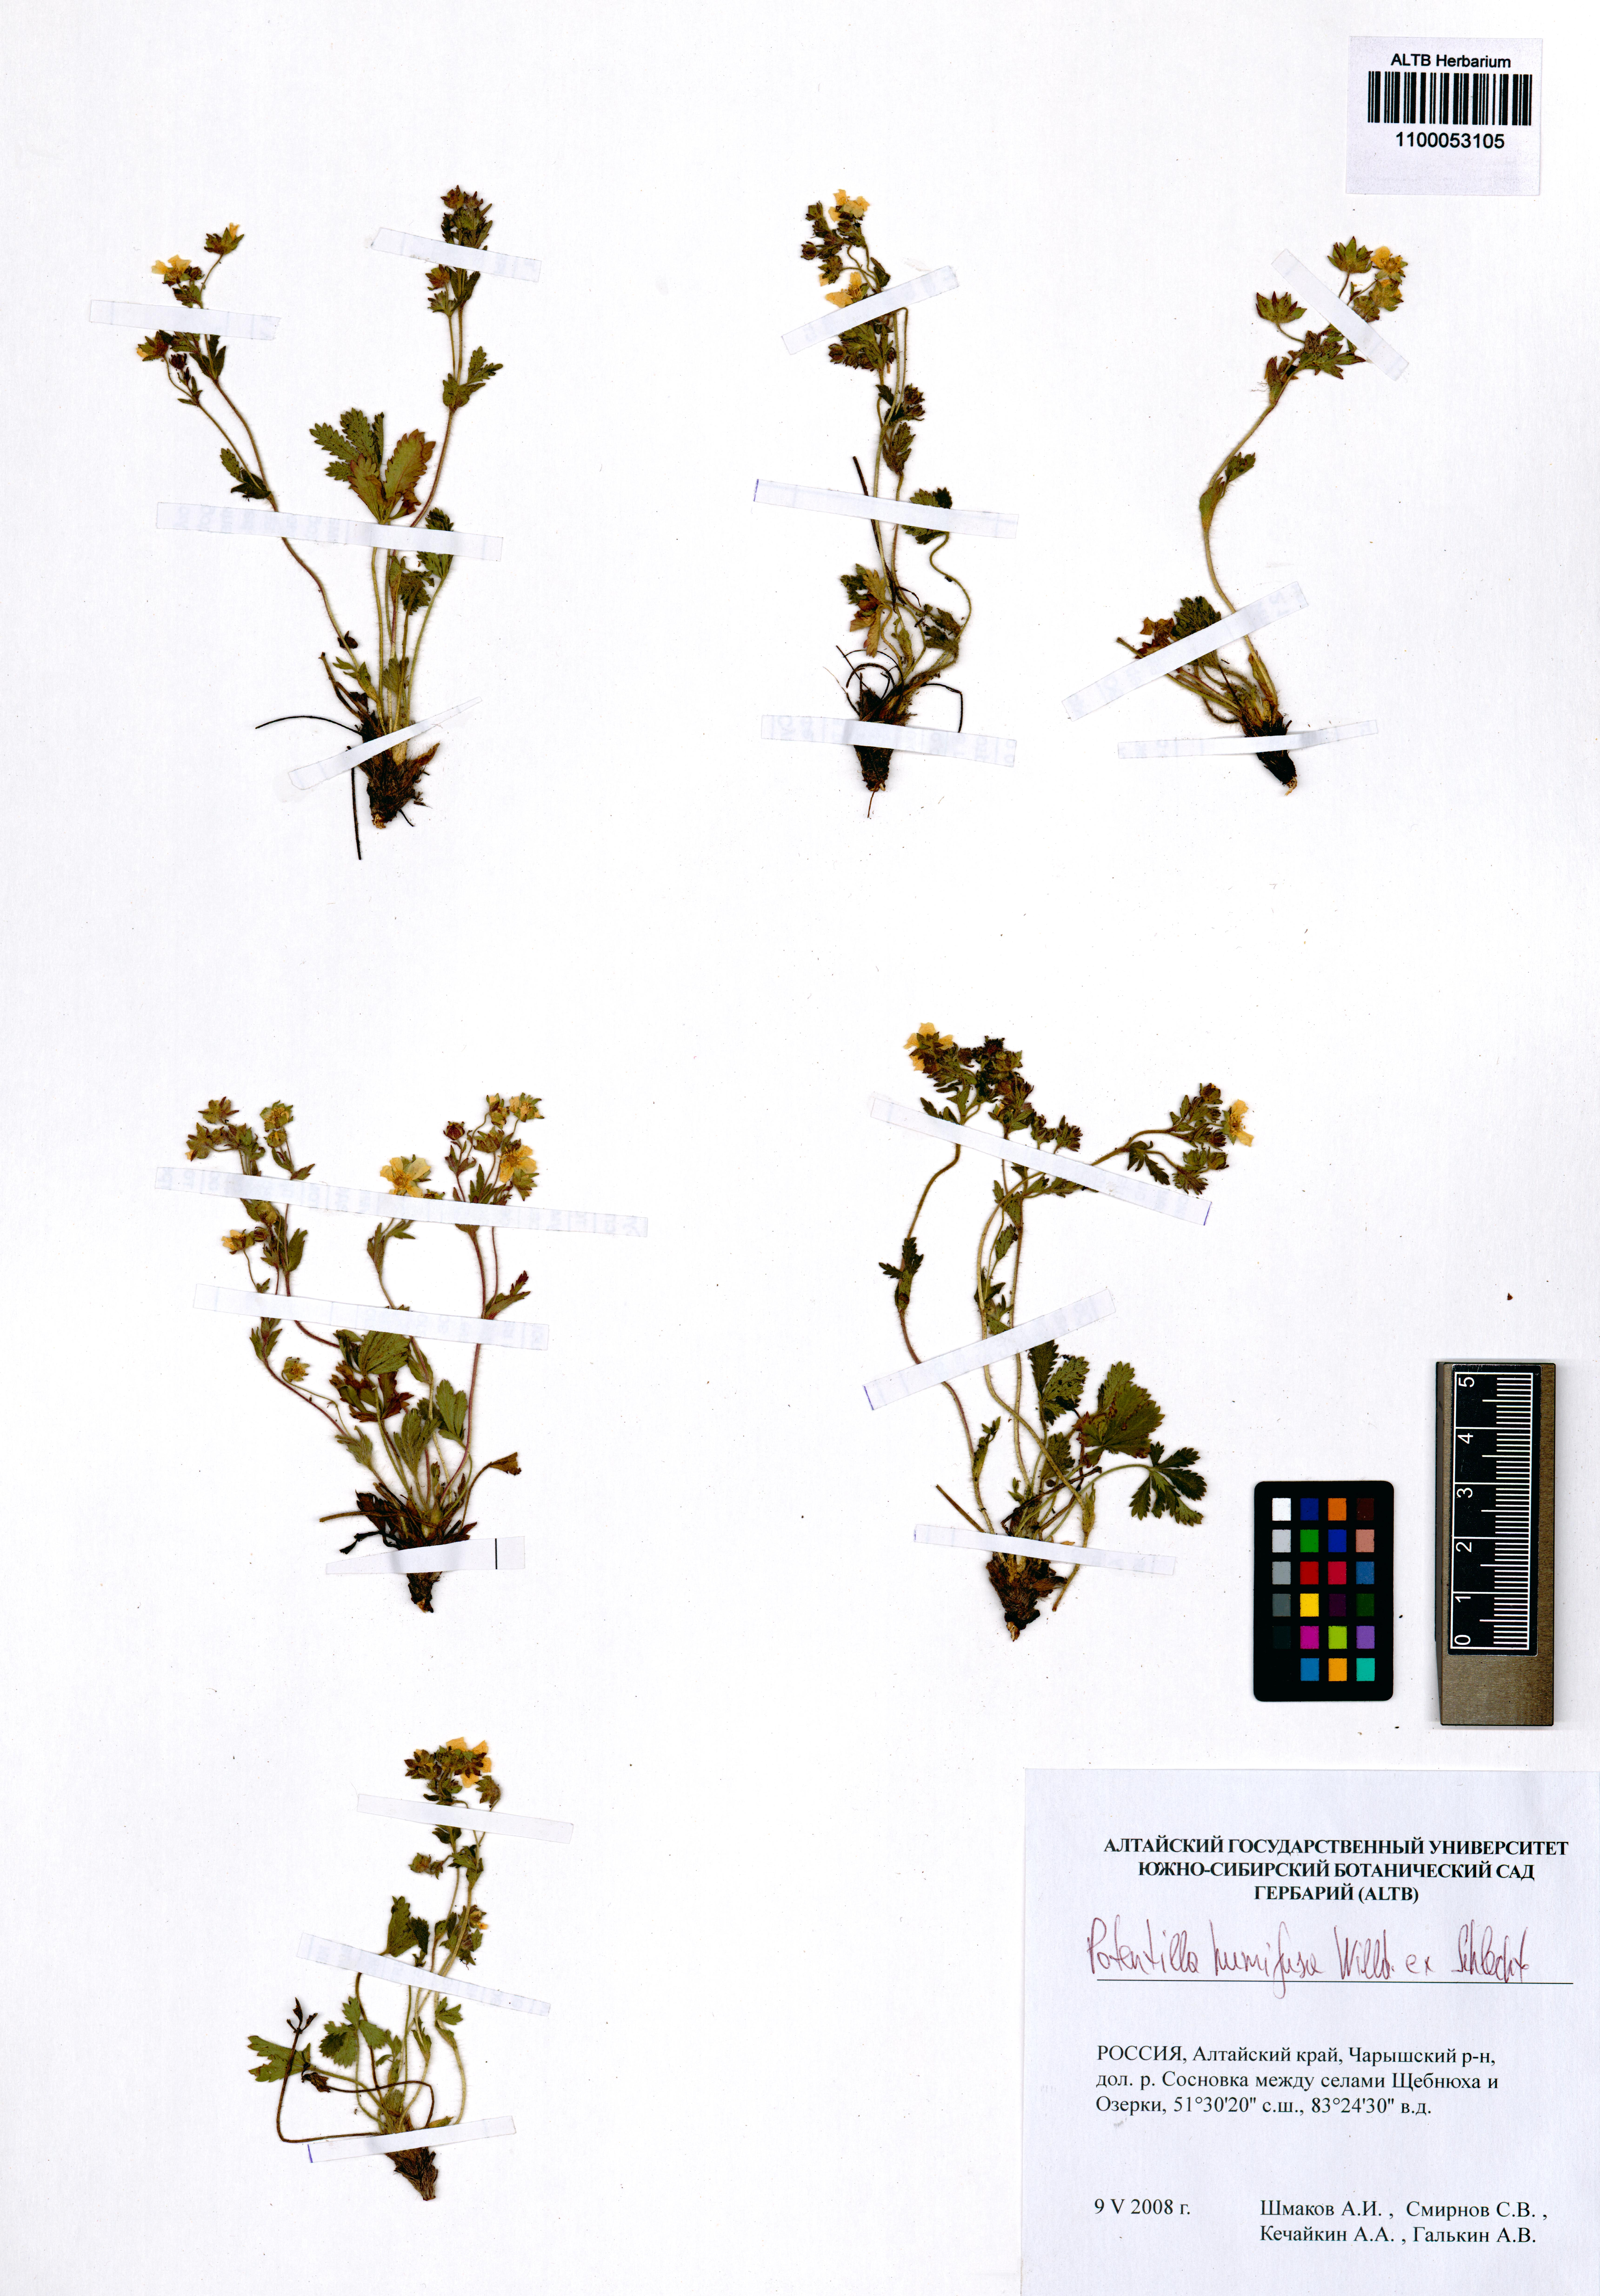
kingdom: Plantae
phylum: Tracheophyta
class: Magnoliopsida
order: Rosales
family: Rosaceae
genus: Potentilla
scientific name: Potentilla humifusa
